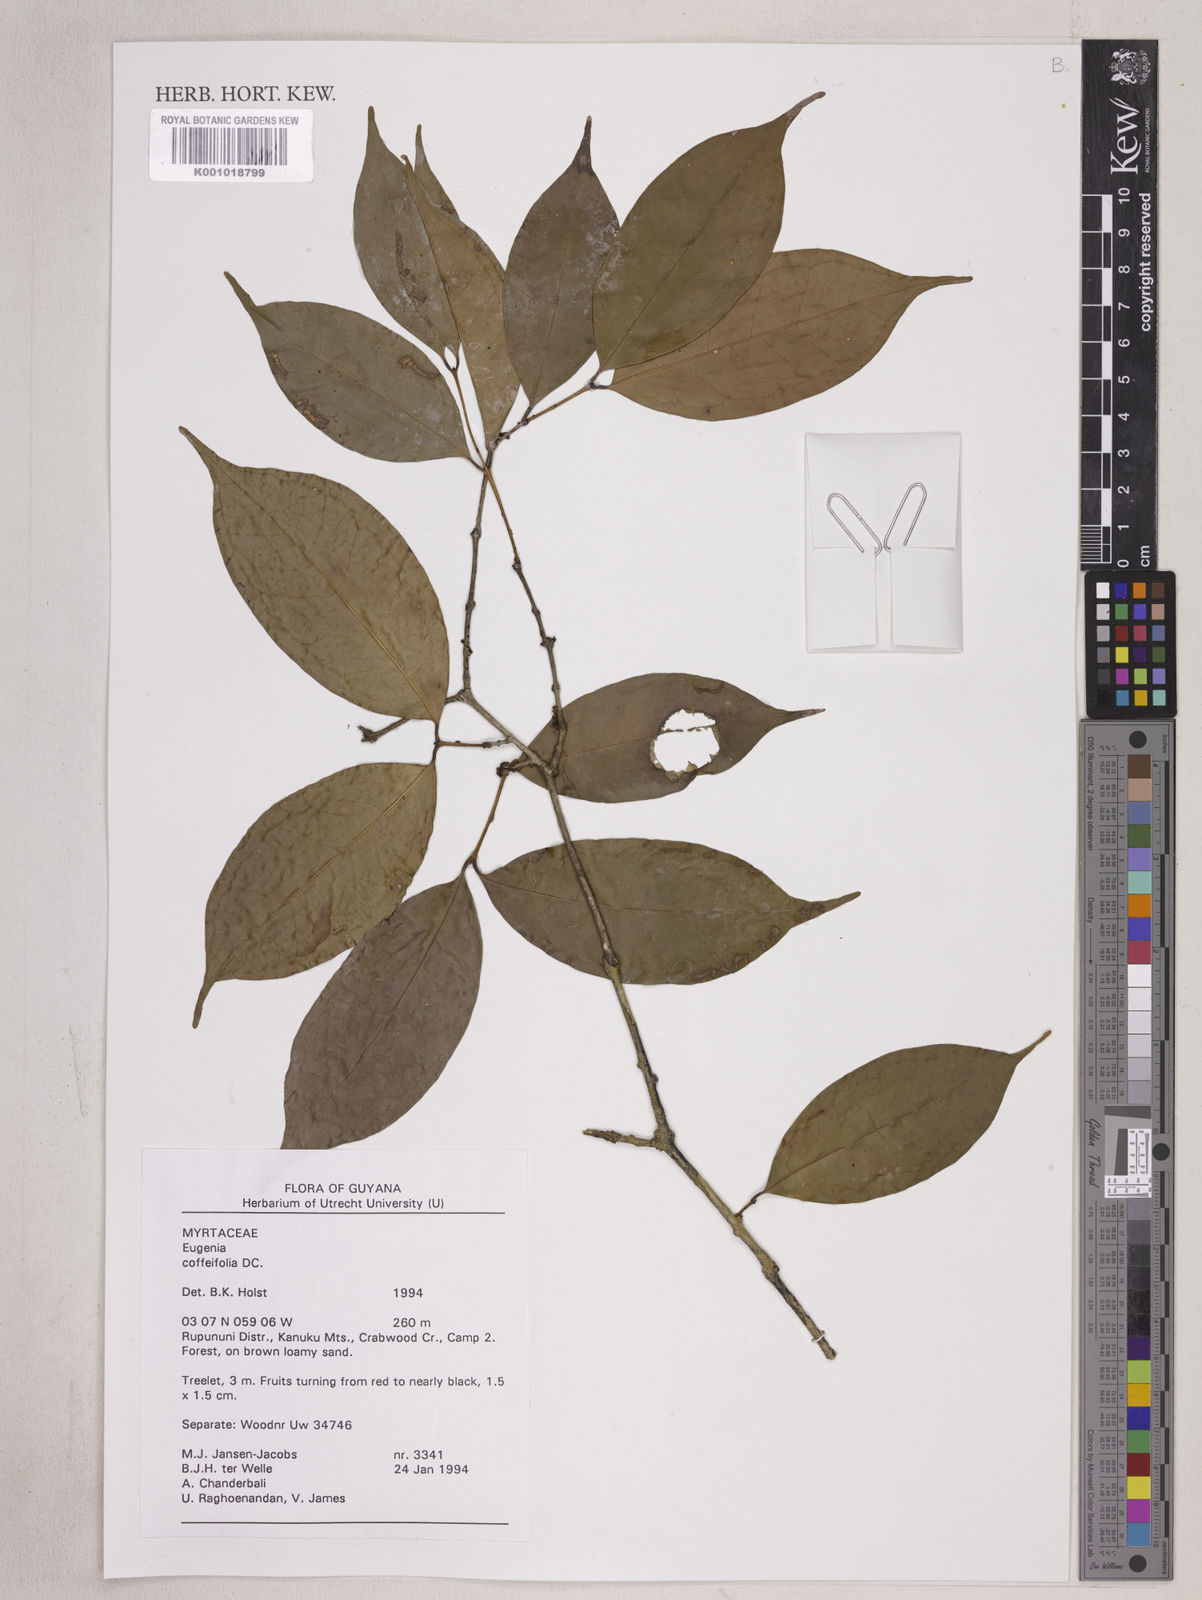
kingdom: Plantae
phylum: Tracheophyta
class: Magnoliopsida
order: Myrtales
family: Myrtaceae
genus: Eugenia
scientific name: Eugenia coffeifolia
